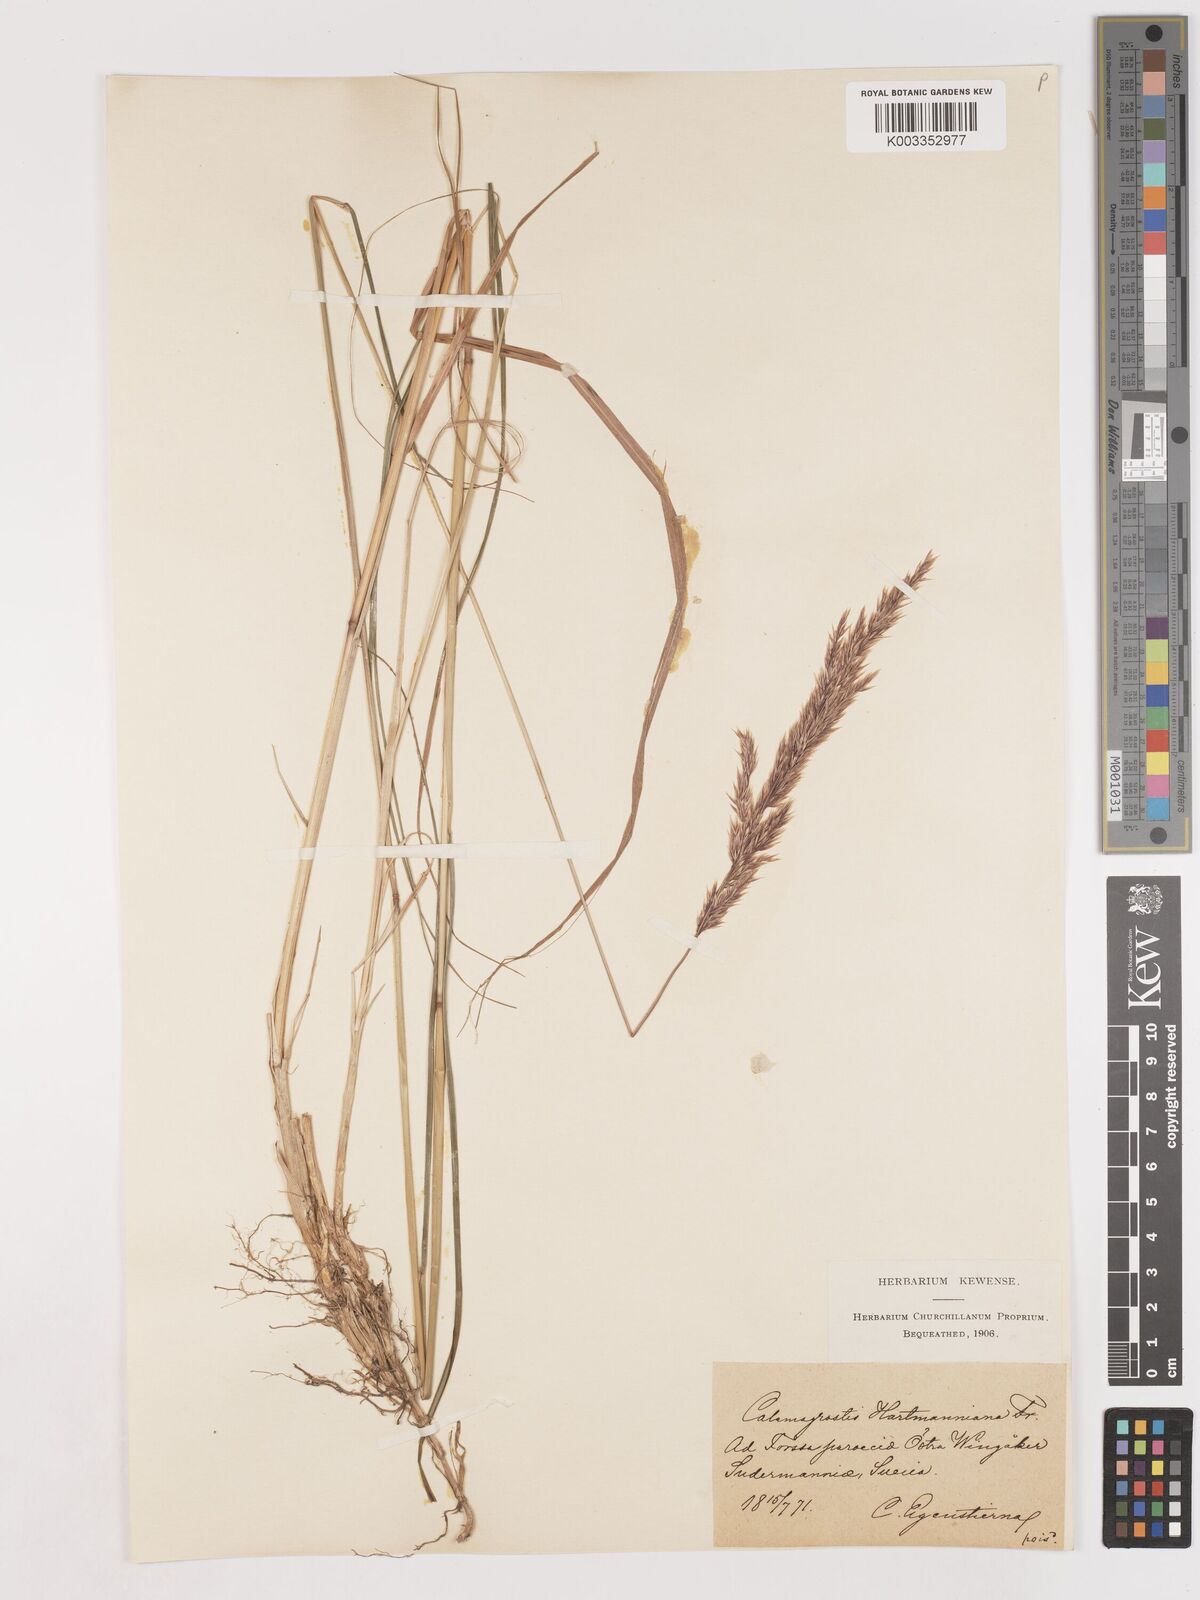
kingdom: Plantae
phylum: Tracheophyta
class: Liliopsida
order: Poales
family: Poaceae
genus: Calamagrostis
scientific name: Calamagrostis canescens
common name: Purple small-reed
